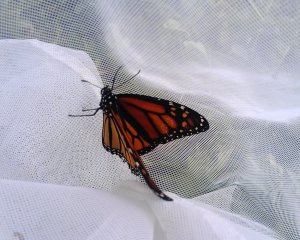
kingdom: Animalia
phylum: Arthropoda
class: Insecta
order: Lepidoptera
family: Nymphalidae
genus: Danaus
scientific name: Danaus plexippus
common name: Monarch
